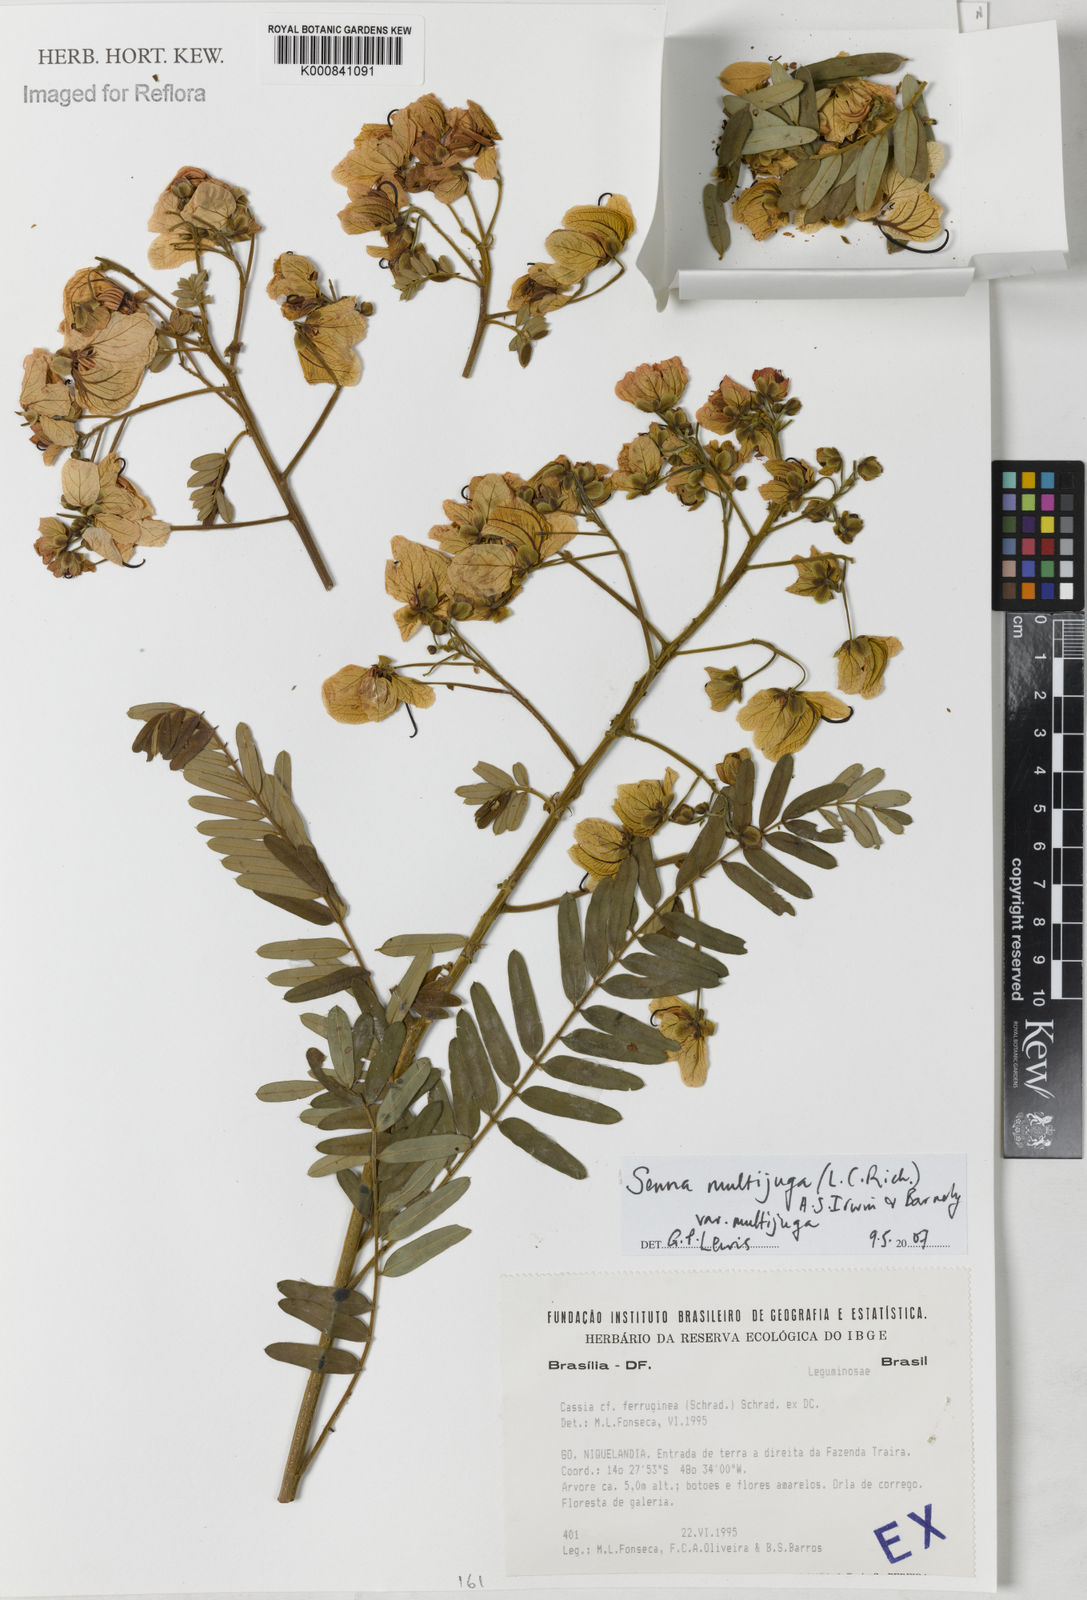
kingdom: Plantae
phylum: Tracheophyta
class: Magnoliopsida
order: Fabales
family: Fabaceae
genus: Senna
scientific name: Senna multijuga
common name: False sicklepod
